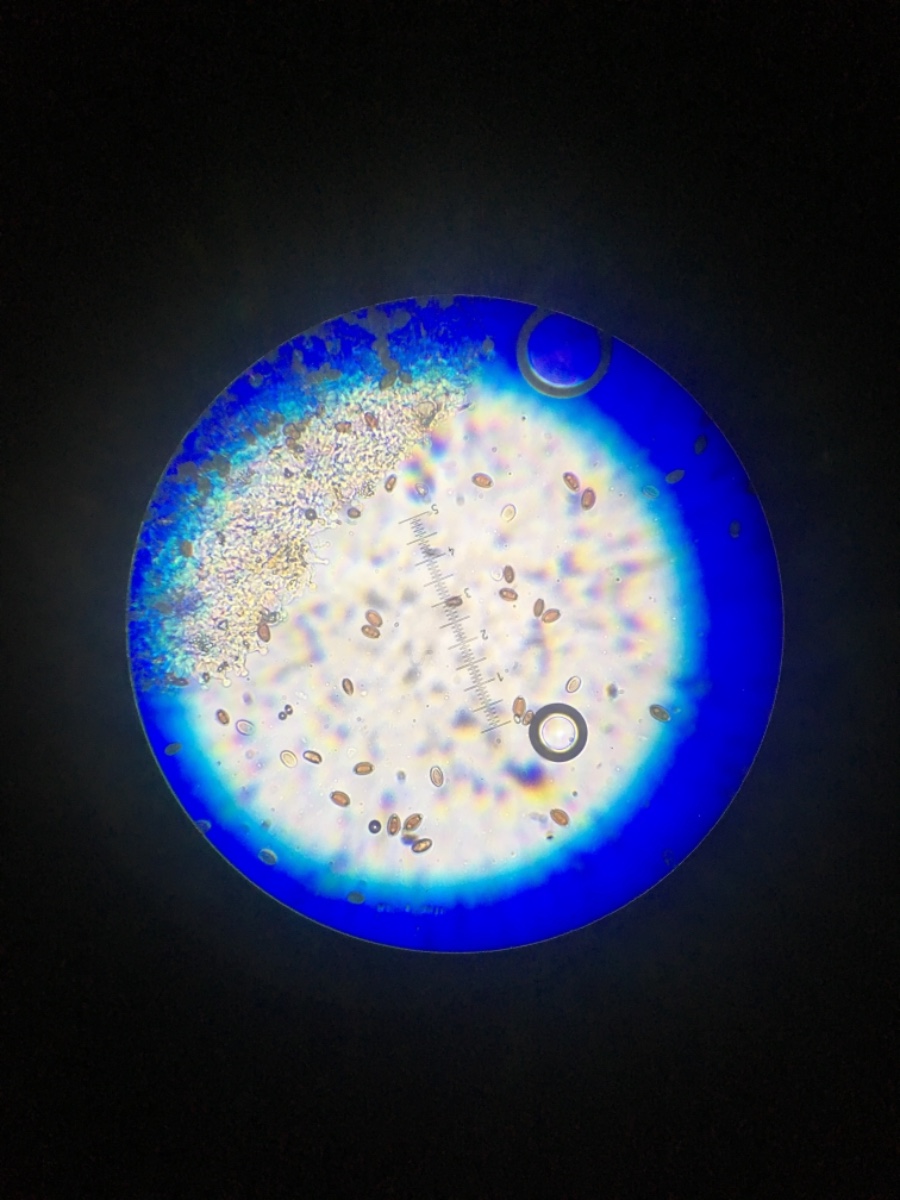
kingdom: Fungi
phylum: Basidiomycota
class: Agaricomycetes
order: Agaricales
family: Bolbitiaceae
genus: Conocybe
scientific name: Conocybe
